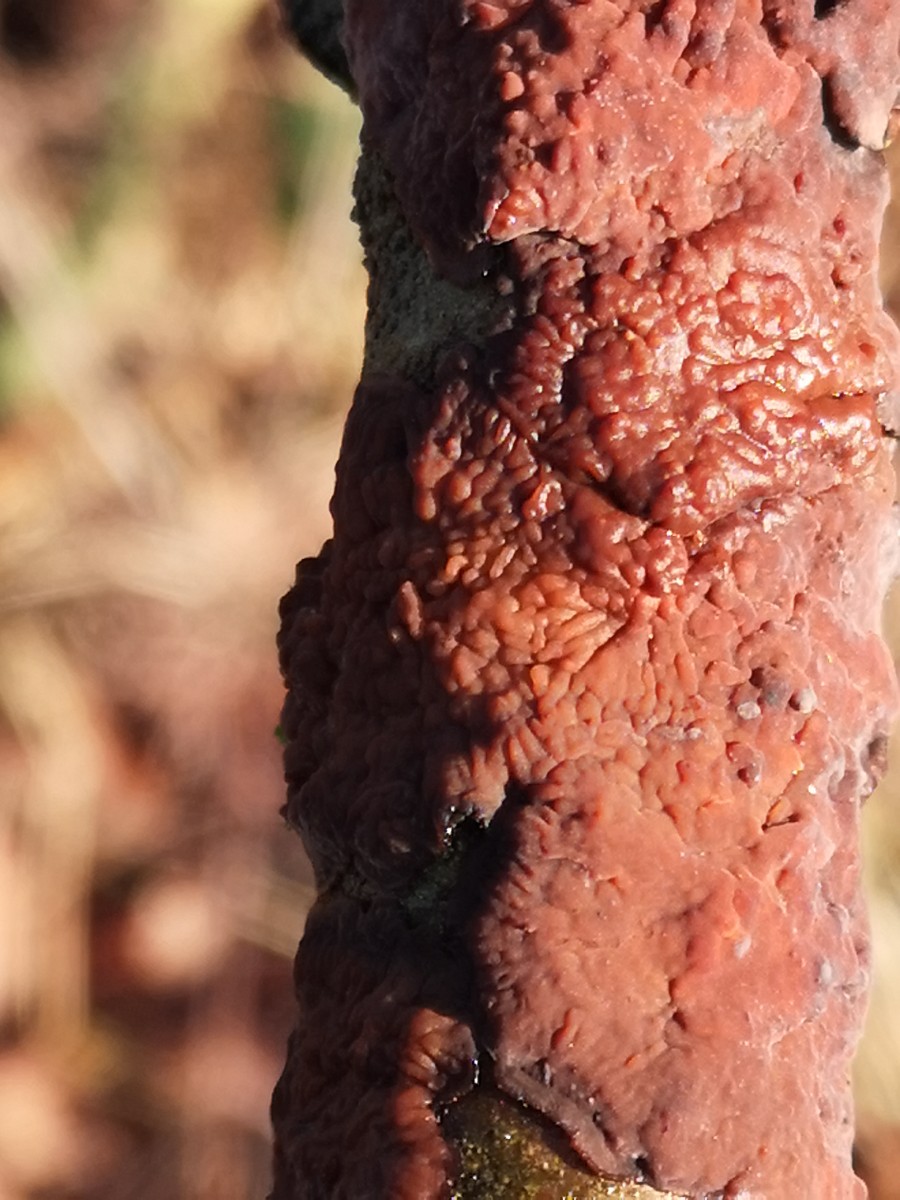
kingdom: Fungi
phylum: Basidiomycota
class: Agaricomycetes
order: Russulales
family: Peniophoraceae
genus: Peniophora
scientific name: Peniophora quercina
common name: ege-voksskind
